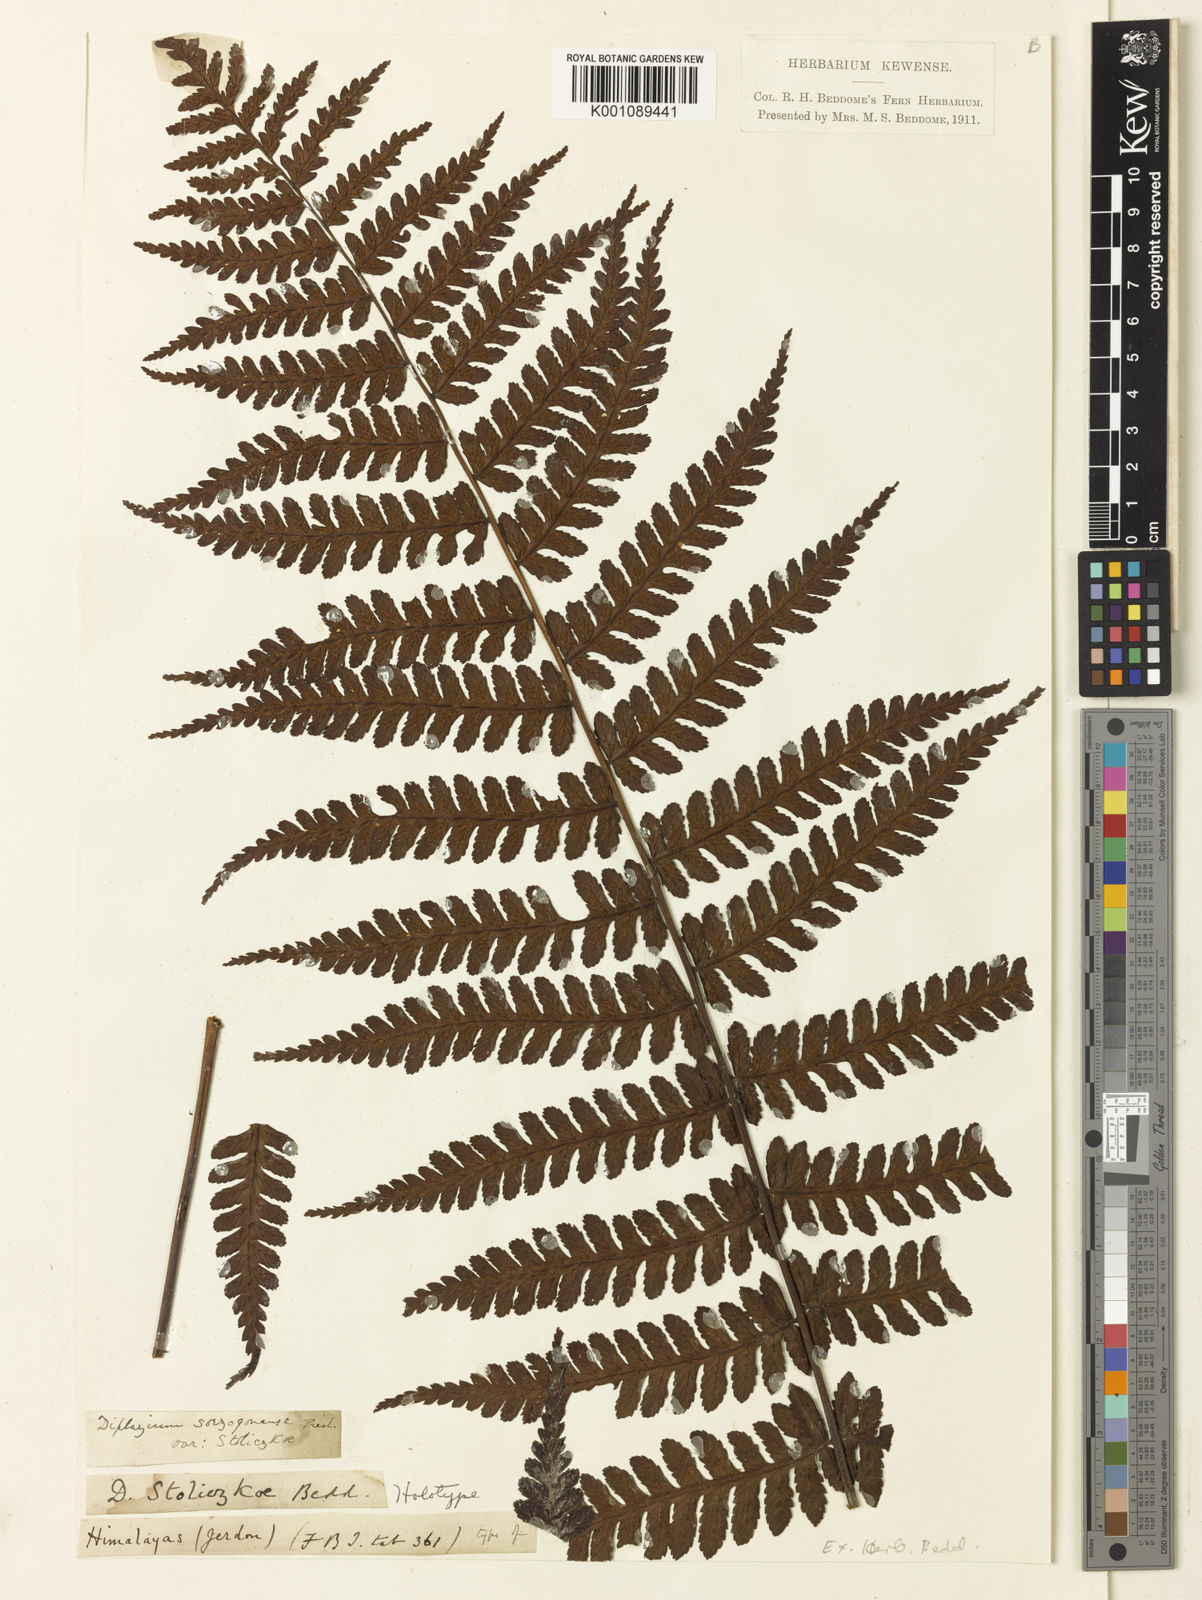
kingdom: Plantae
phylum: Tracheophyta
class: Polypodiopsida
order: Polypodiales
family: Athyriaceae
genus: Diplazium
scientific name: Diplazium stoliczkae
